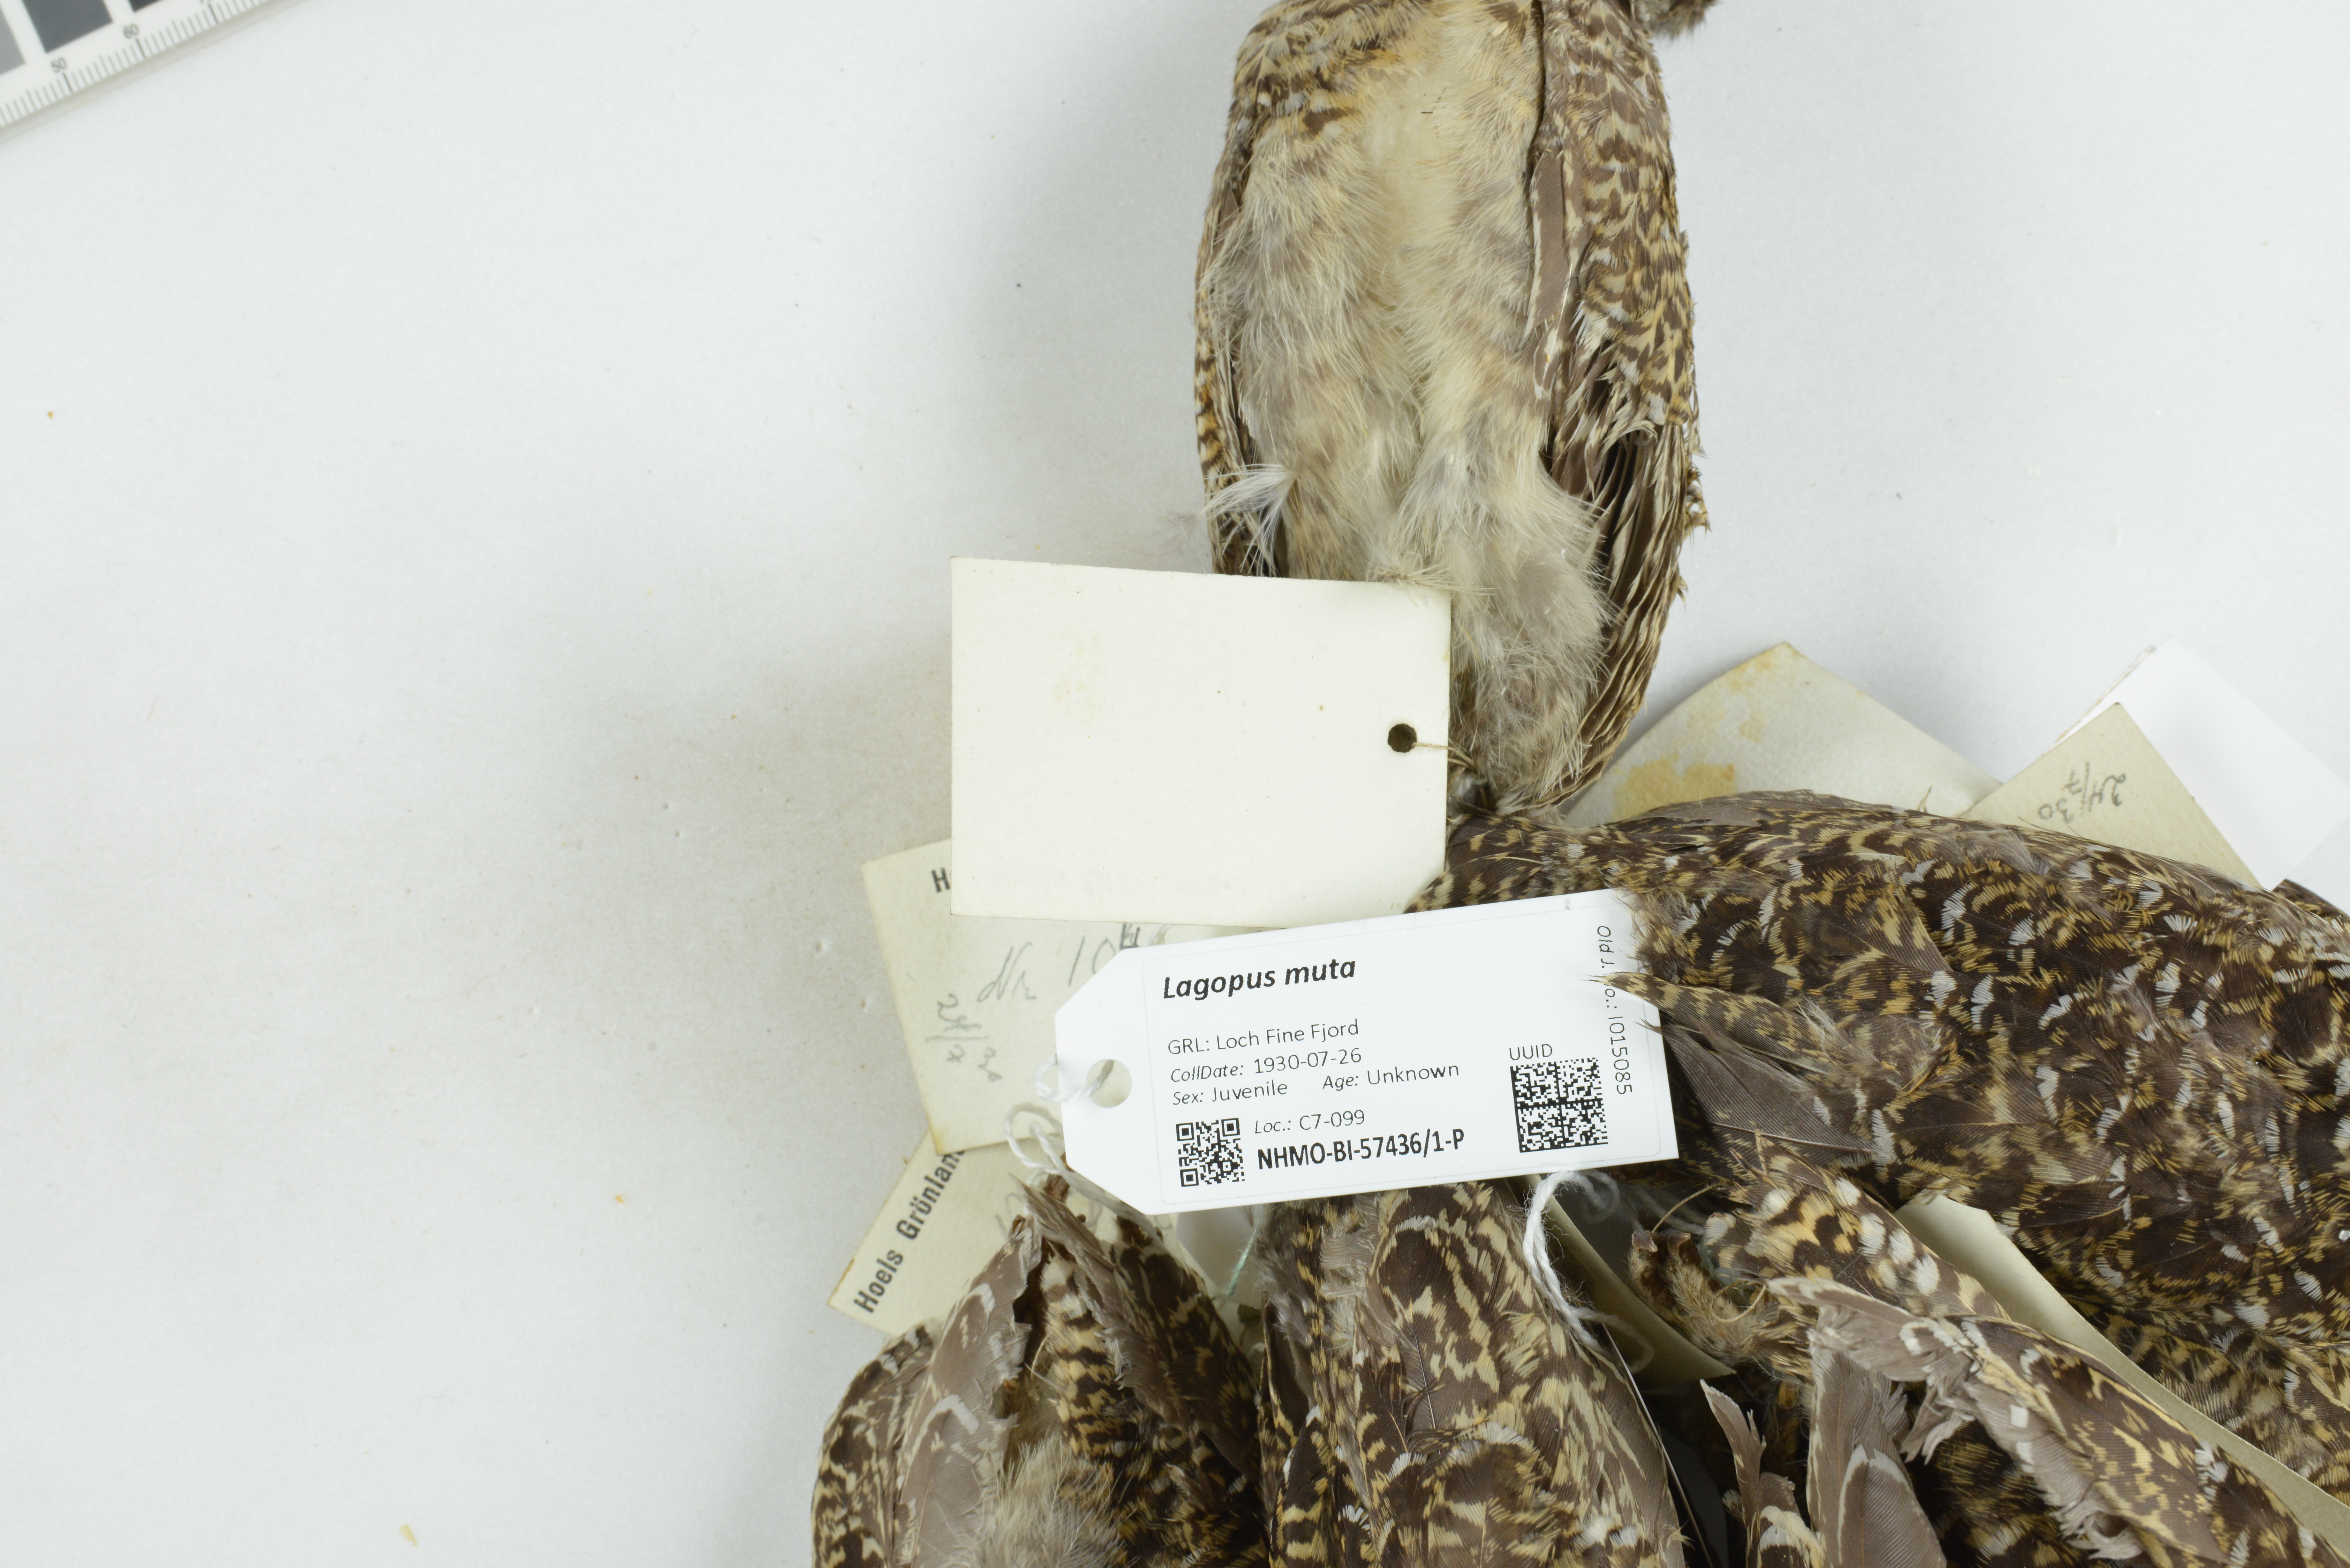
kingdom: Animalia
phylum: Chordata
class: Aves
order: Galliformes
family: Phasianidae
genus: Lagopus
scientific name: Lagopus muta
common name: Rock ptarmigan
